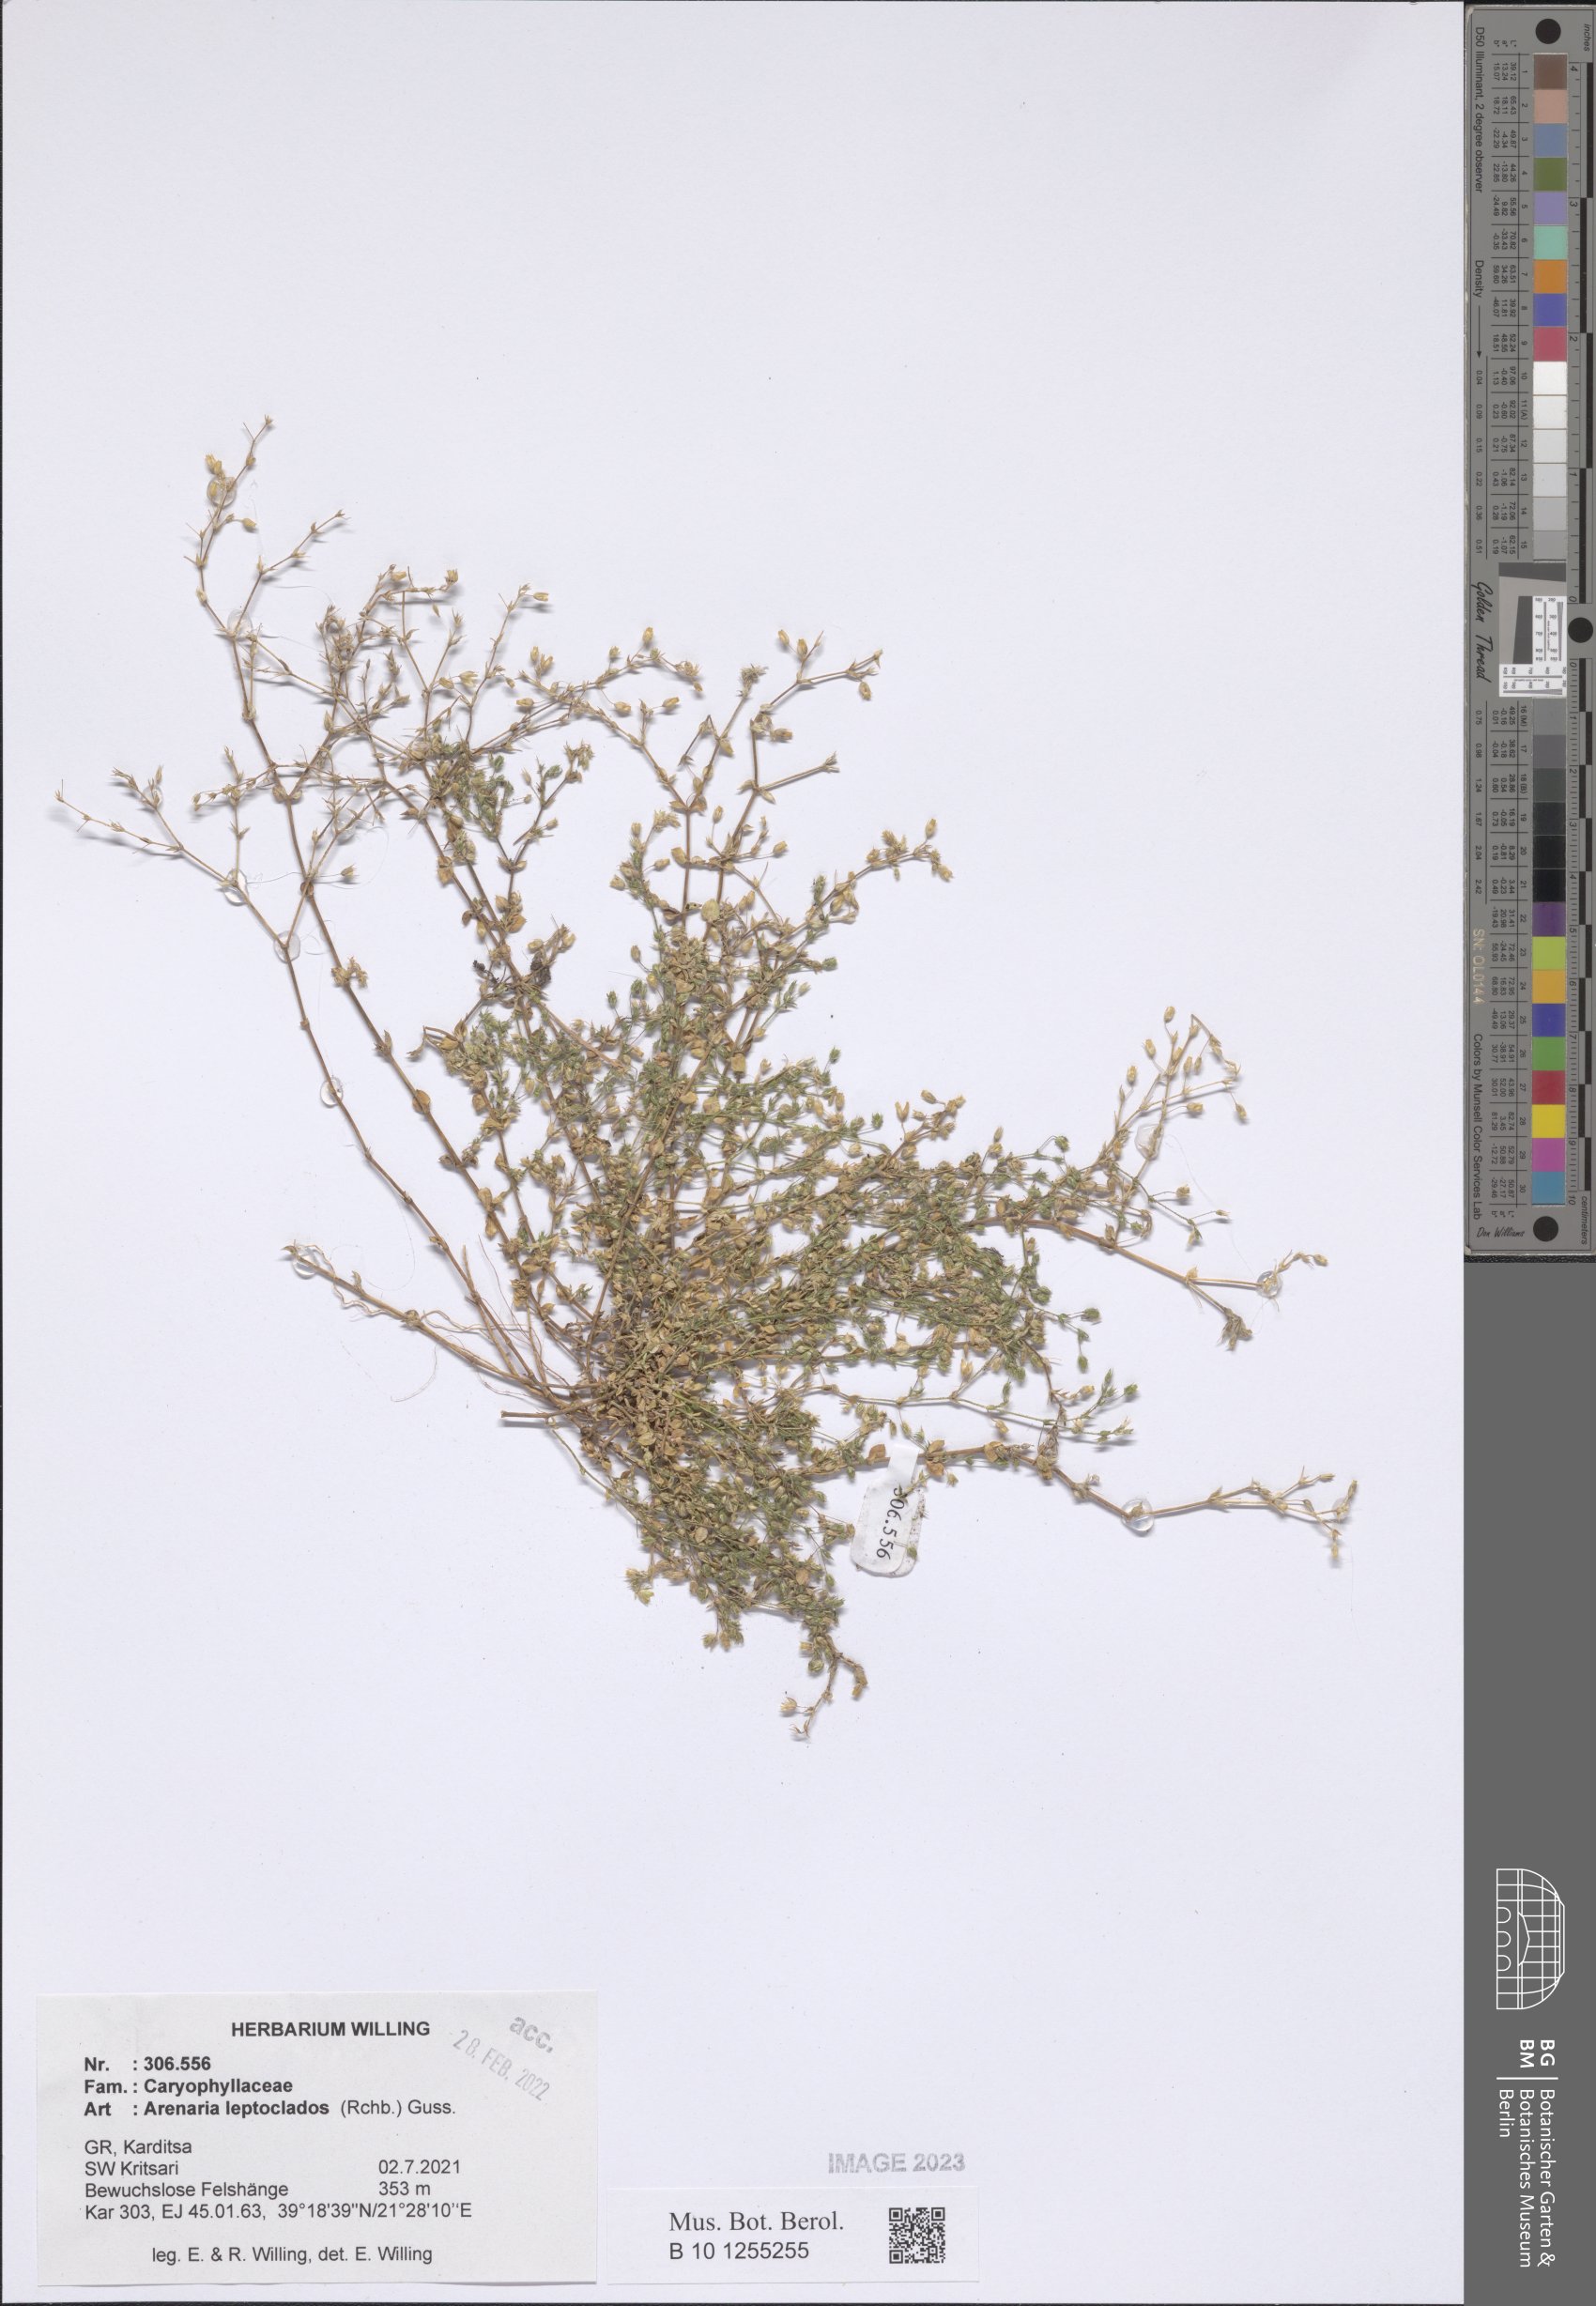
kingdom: Plantae
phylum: Tracheophyta
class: Magnoliopsida
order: Caryophyllales
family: Caryophyllaceae
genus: Arenaria
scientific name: Arenaria leptoclados
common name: Thyme-leaved sandwort
